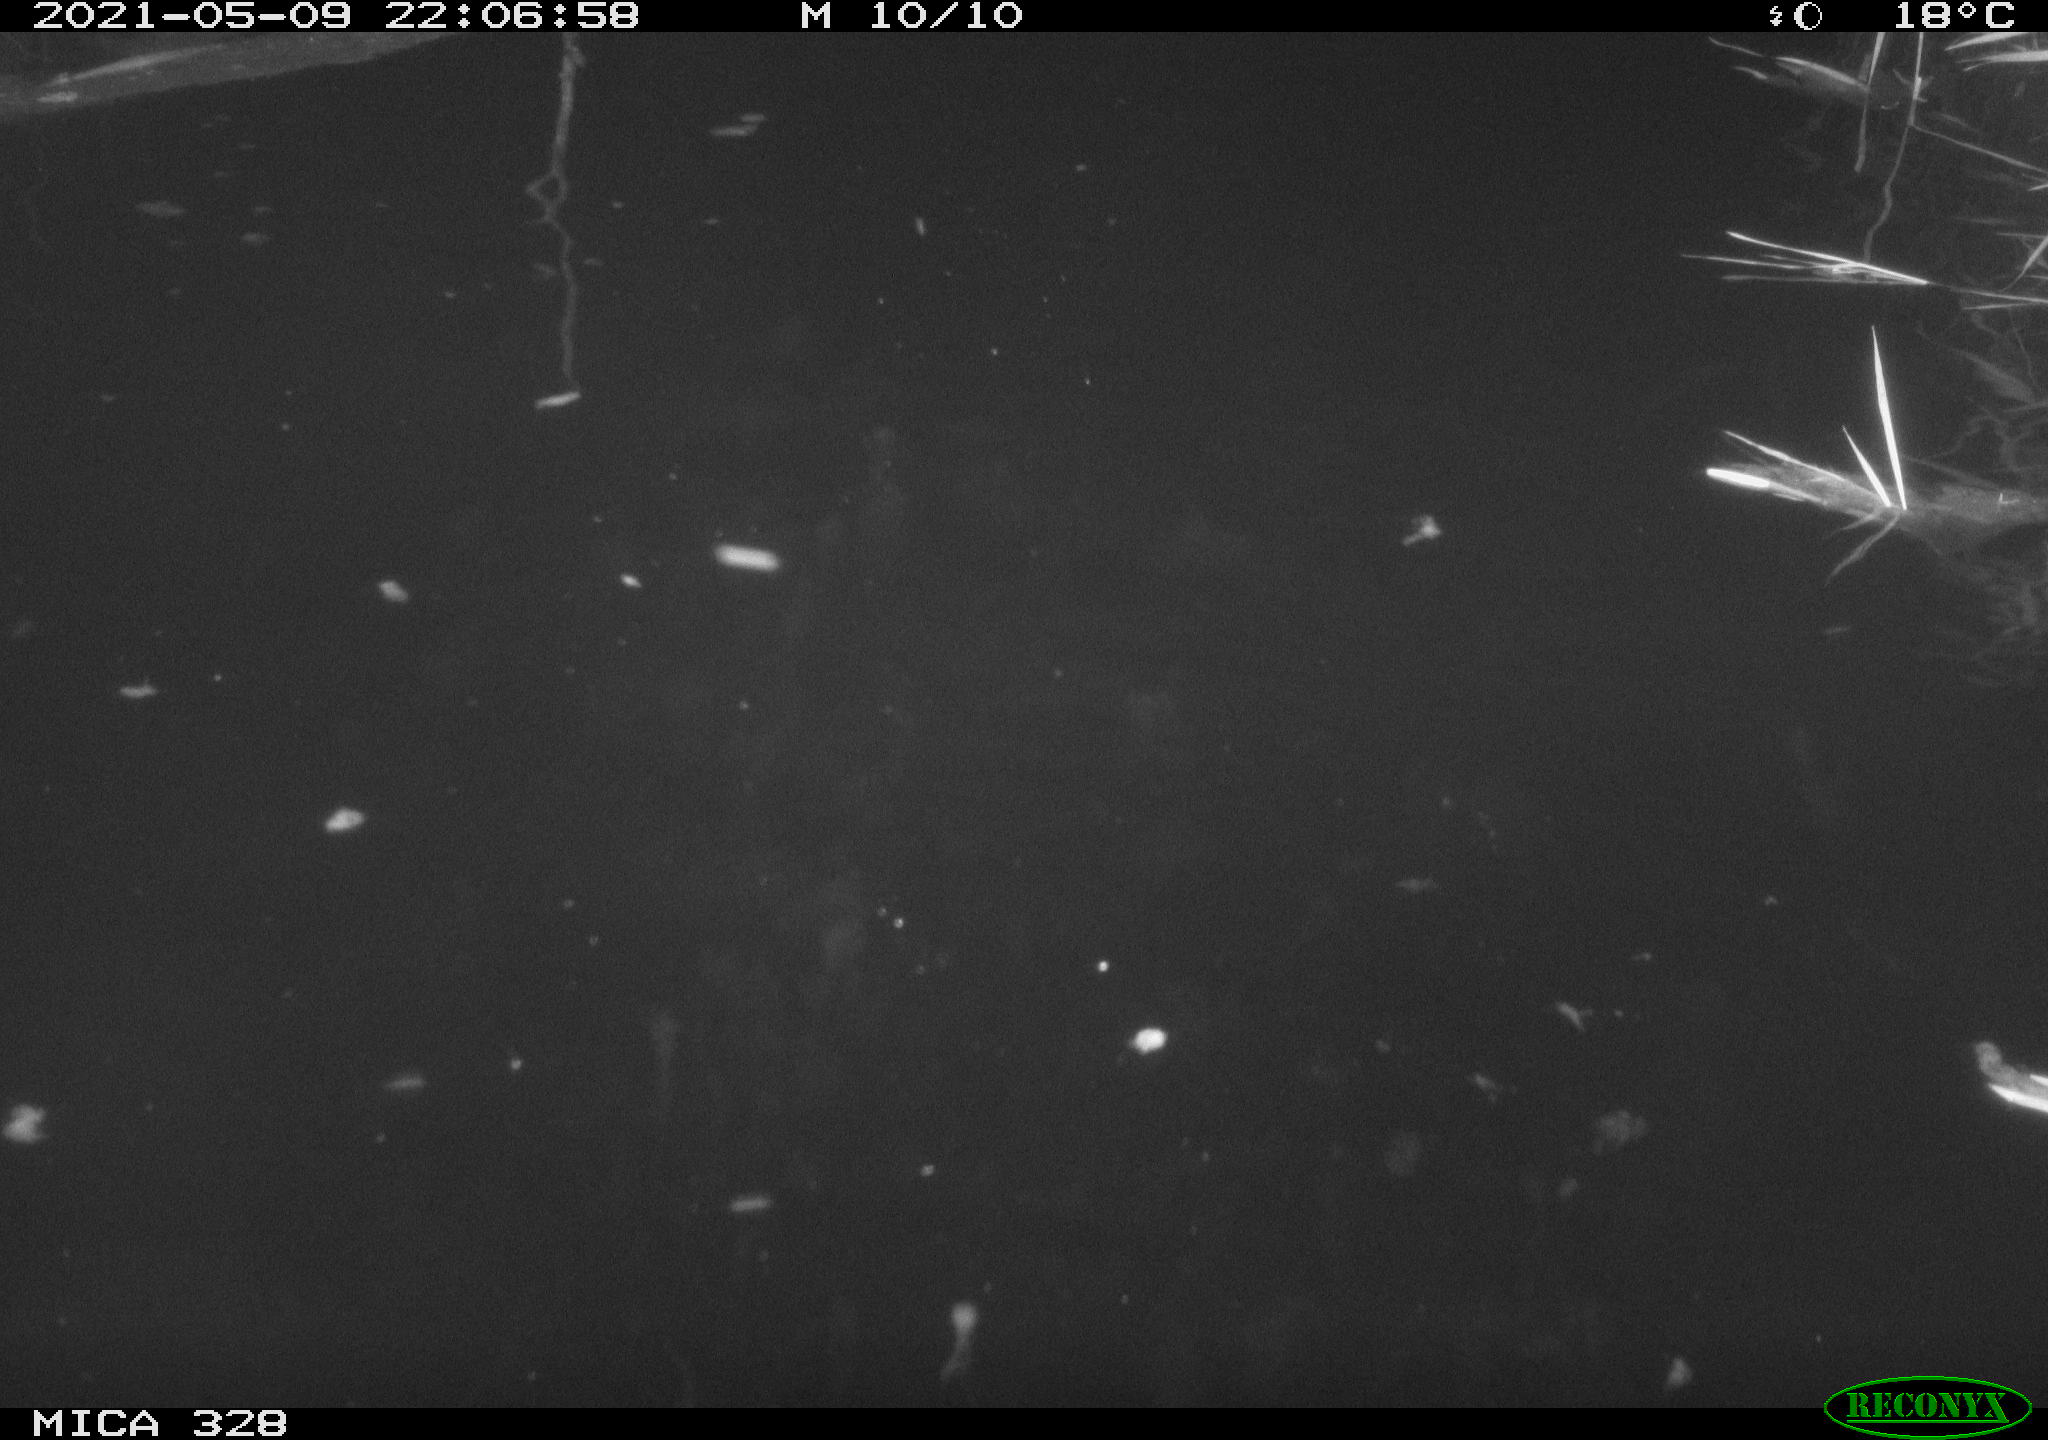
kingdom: Animalia
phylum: Chordata
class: Mammalia
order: Rodentia
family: Cricetidae
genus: Ondatra
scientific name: Ondatra zibethicus
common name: Muskrat
